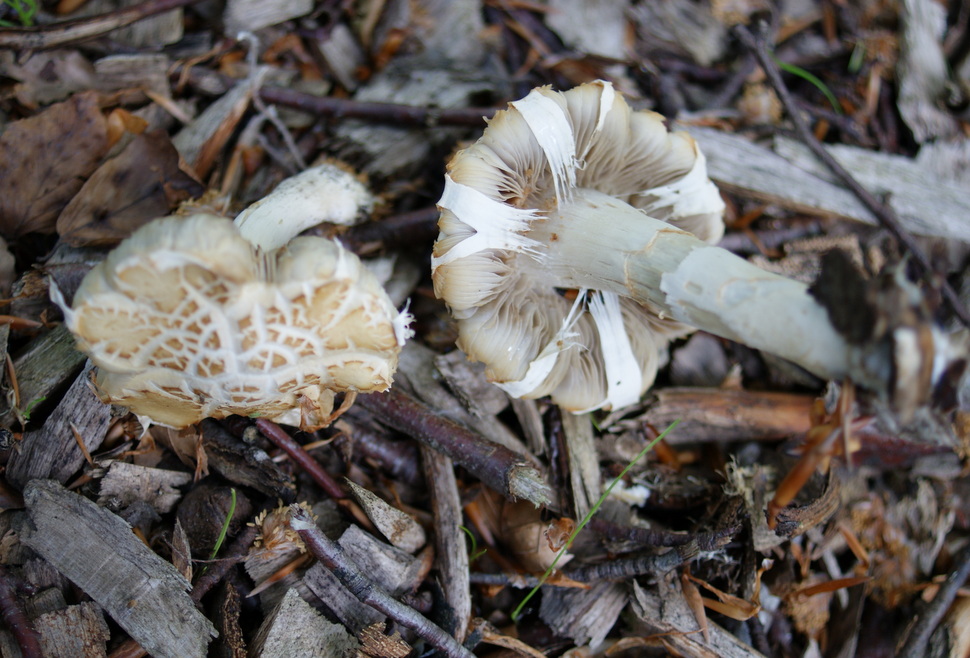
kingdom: Fungi
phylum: Basidiomycota
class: Agaricomycetes
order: Agaricales
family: Strophariaceae
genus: Agrocybe
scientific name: Agrocybe praecox
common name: tidlig agerhat
